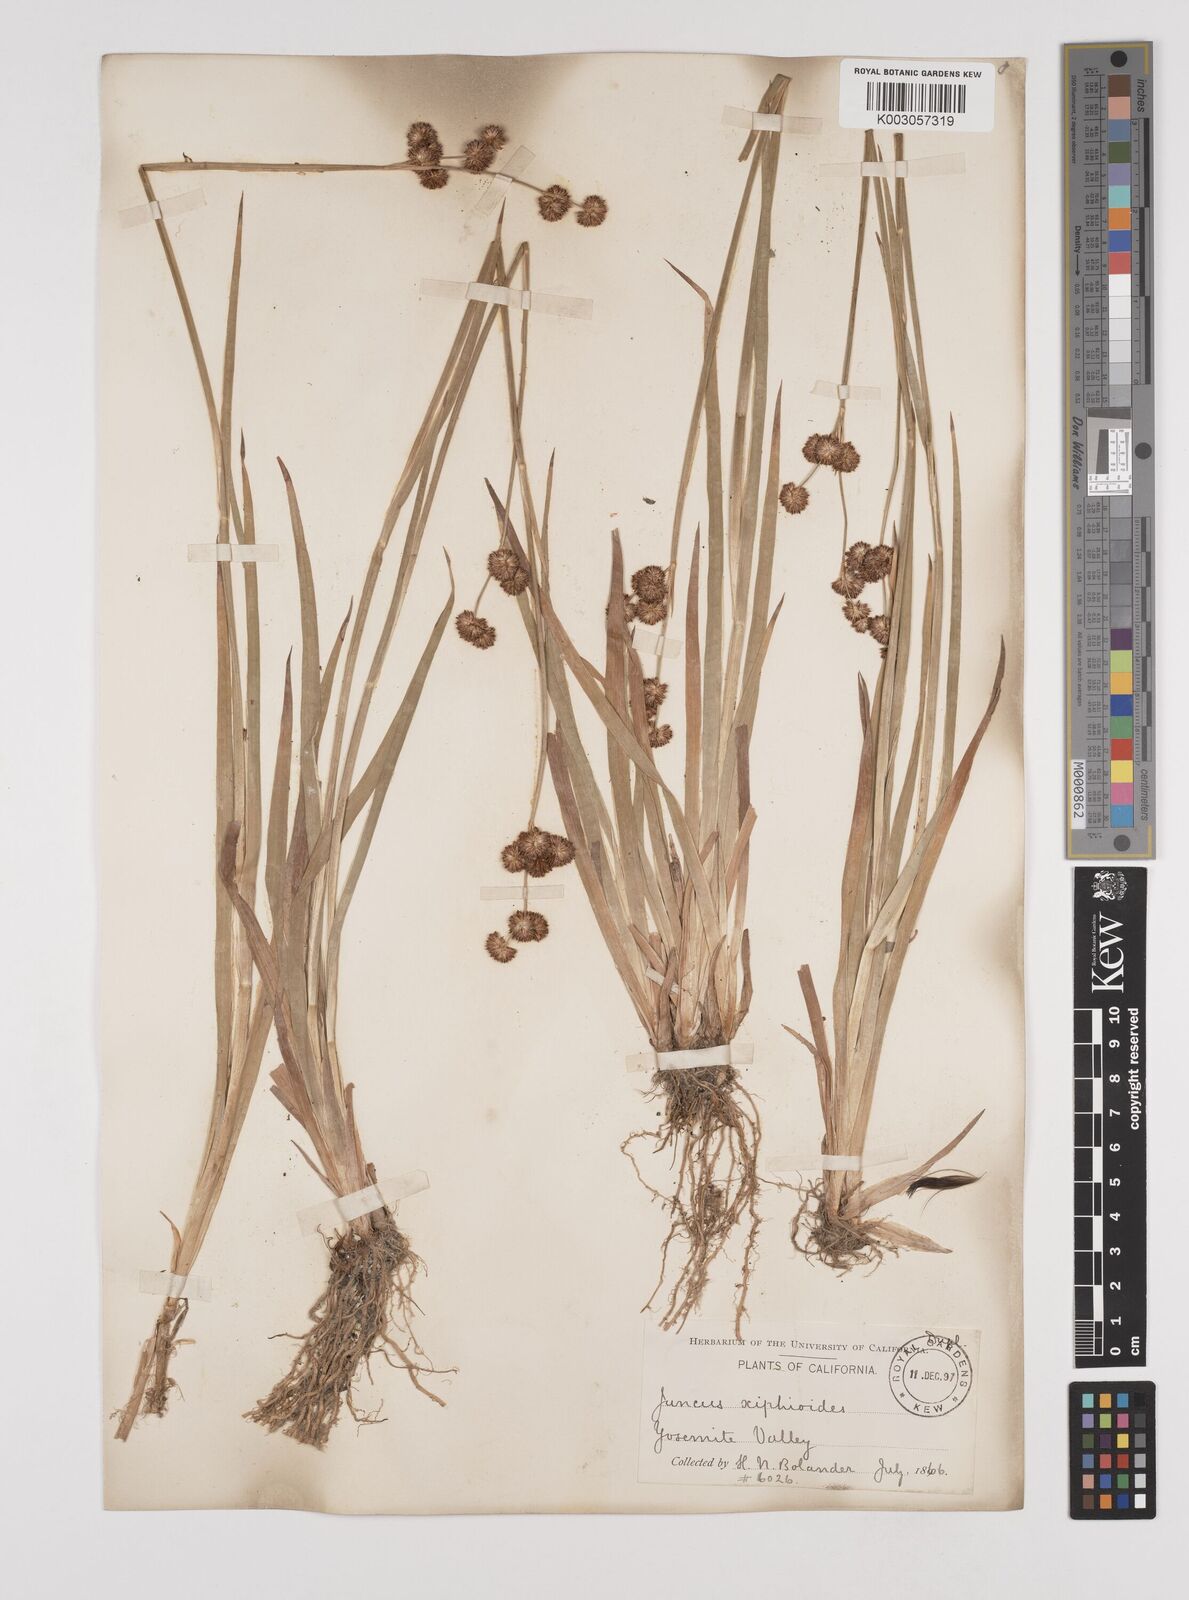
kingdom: Plantae
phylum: Tracheophyta
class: Liliopsida
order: Poales
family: Juncaceae
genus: Juncus
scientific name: Juncus nodosus
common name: Knotted rush
